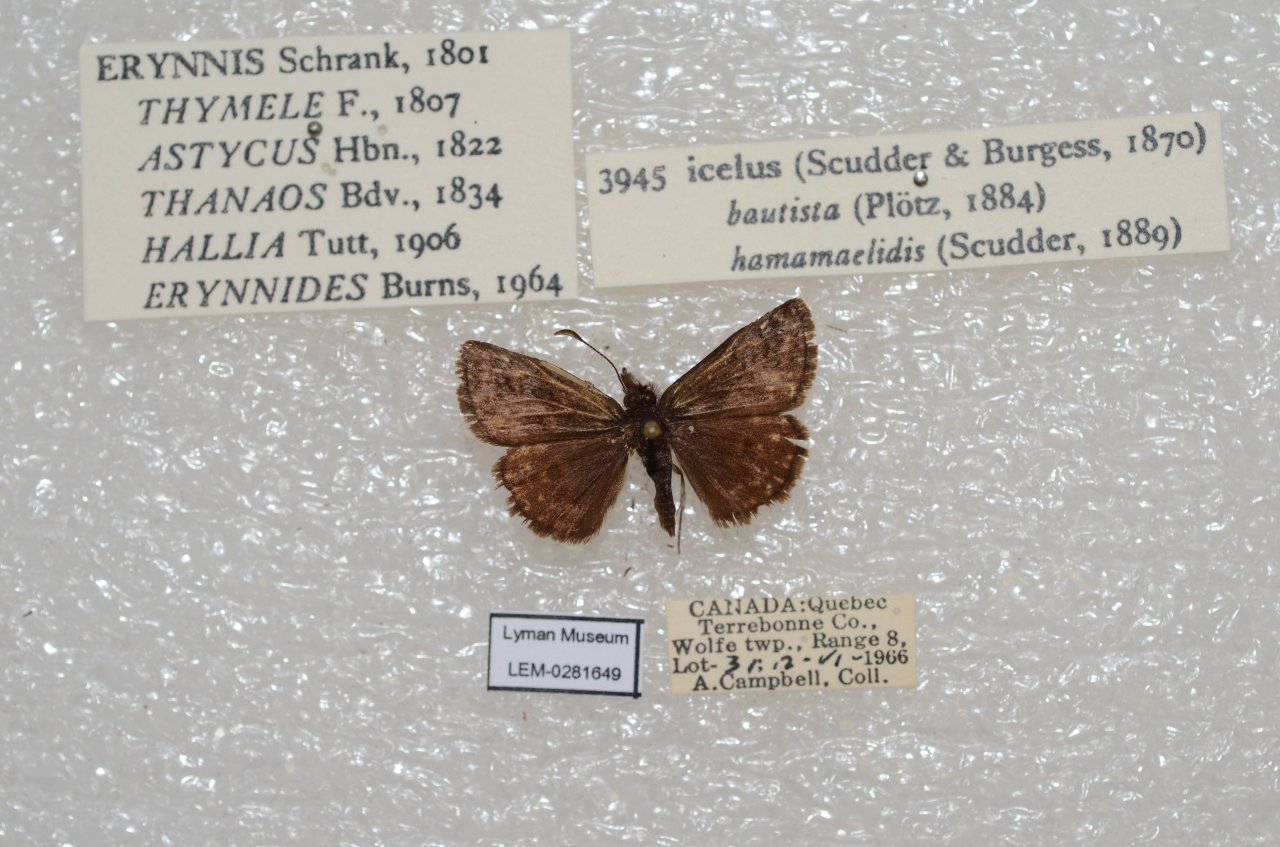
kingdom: Animalia
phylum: Arthropoda
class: Insecta
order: Lepidoptera
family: Hesperiidae
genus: Erynnis
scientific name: Erynnis icelus
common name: Dreamy Duskywing
